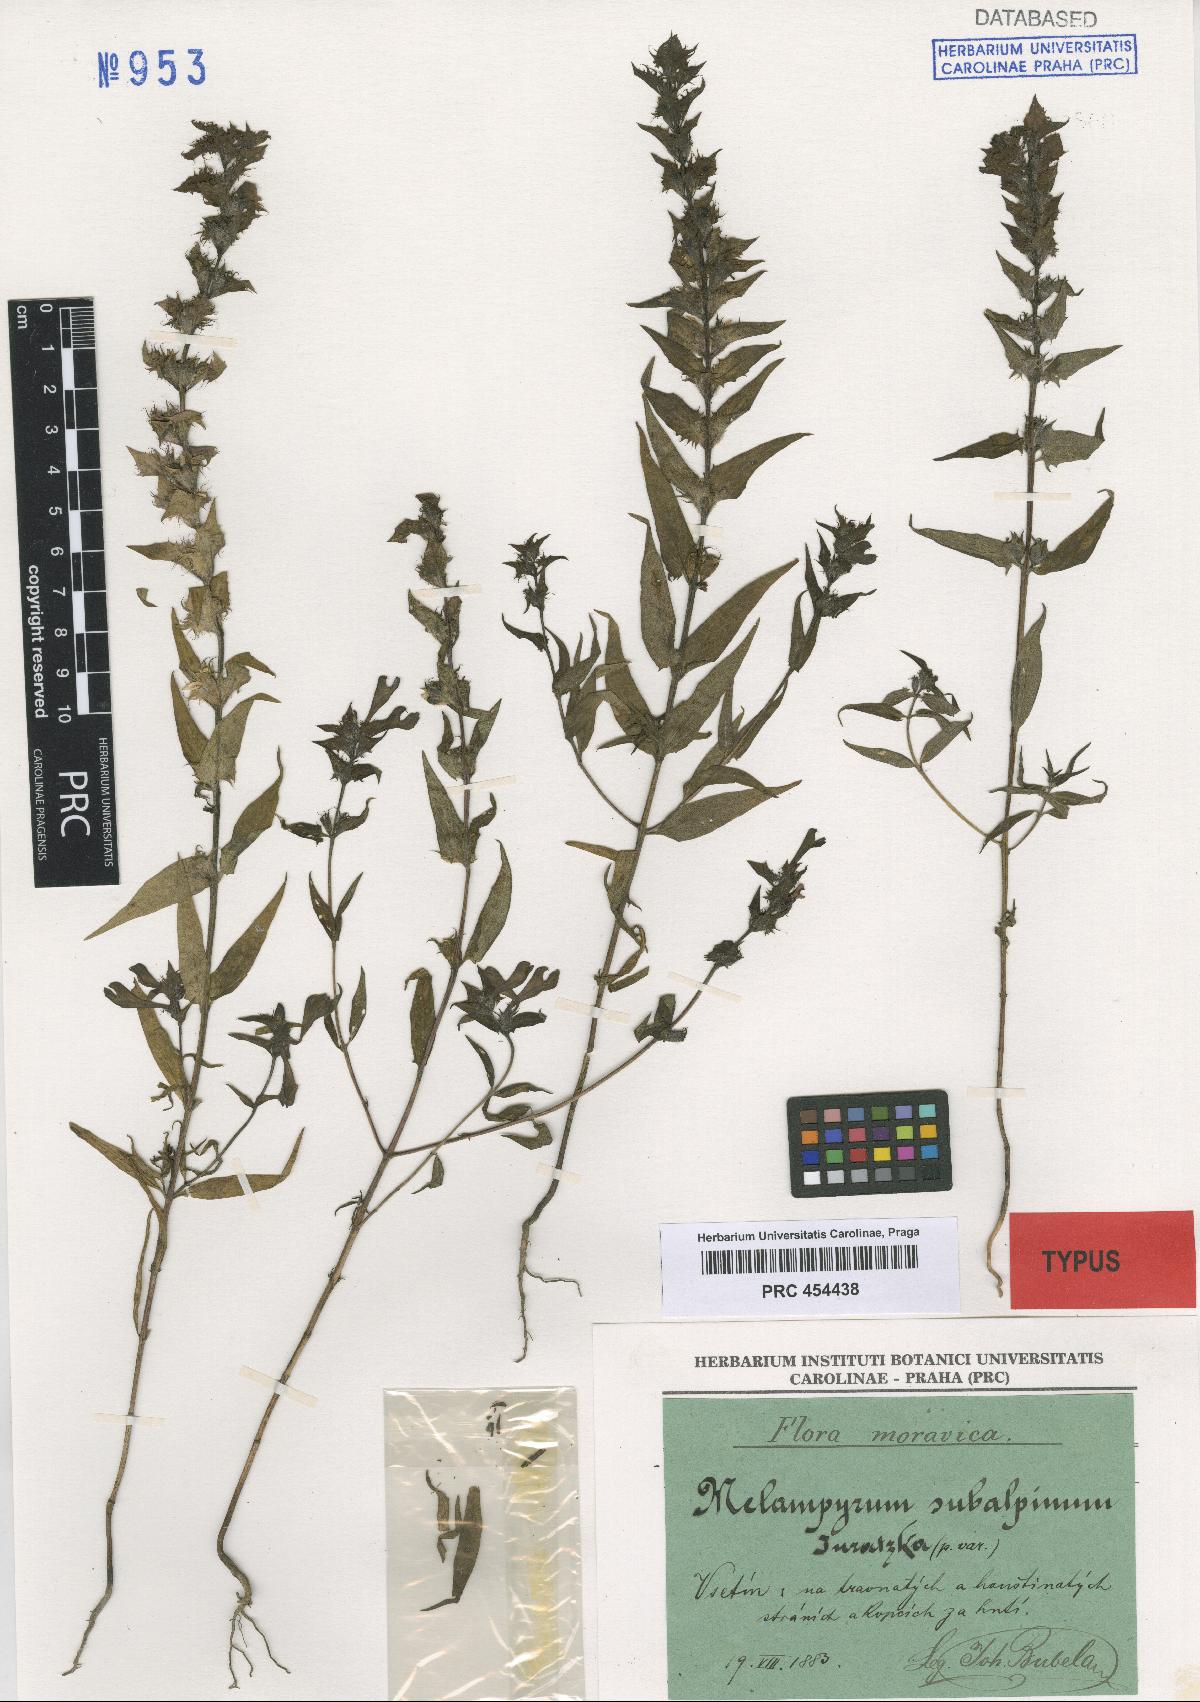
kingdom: Plantae
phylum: Tracheophyta
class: Magnoliopsida
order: Lamiales
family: Orobanchaceae
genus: Melampyrum
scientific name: Melampyrum nemorosum
